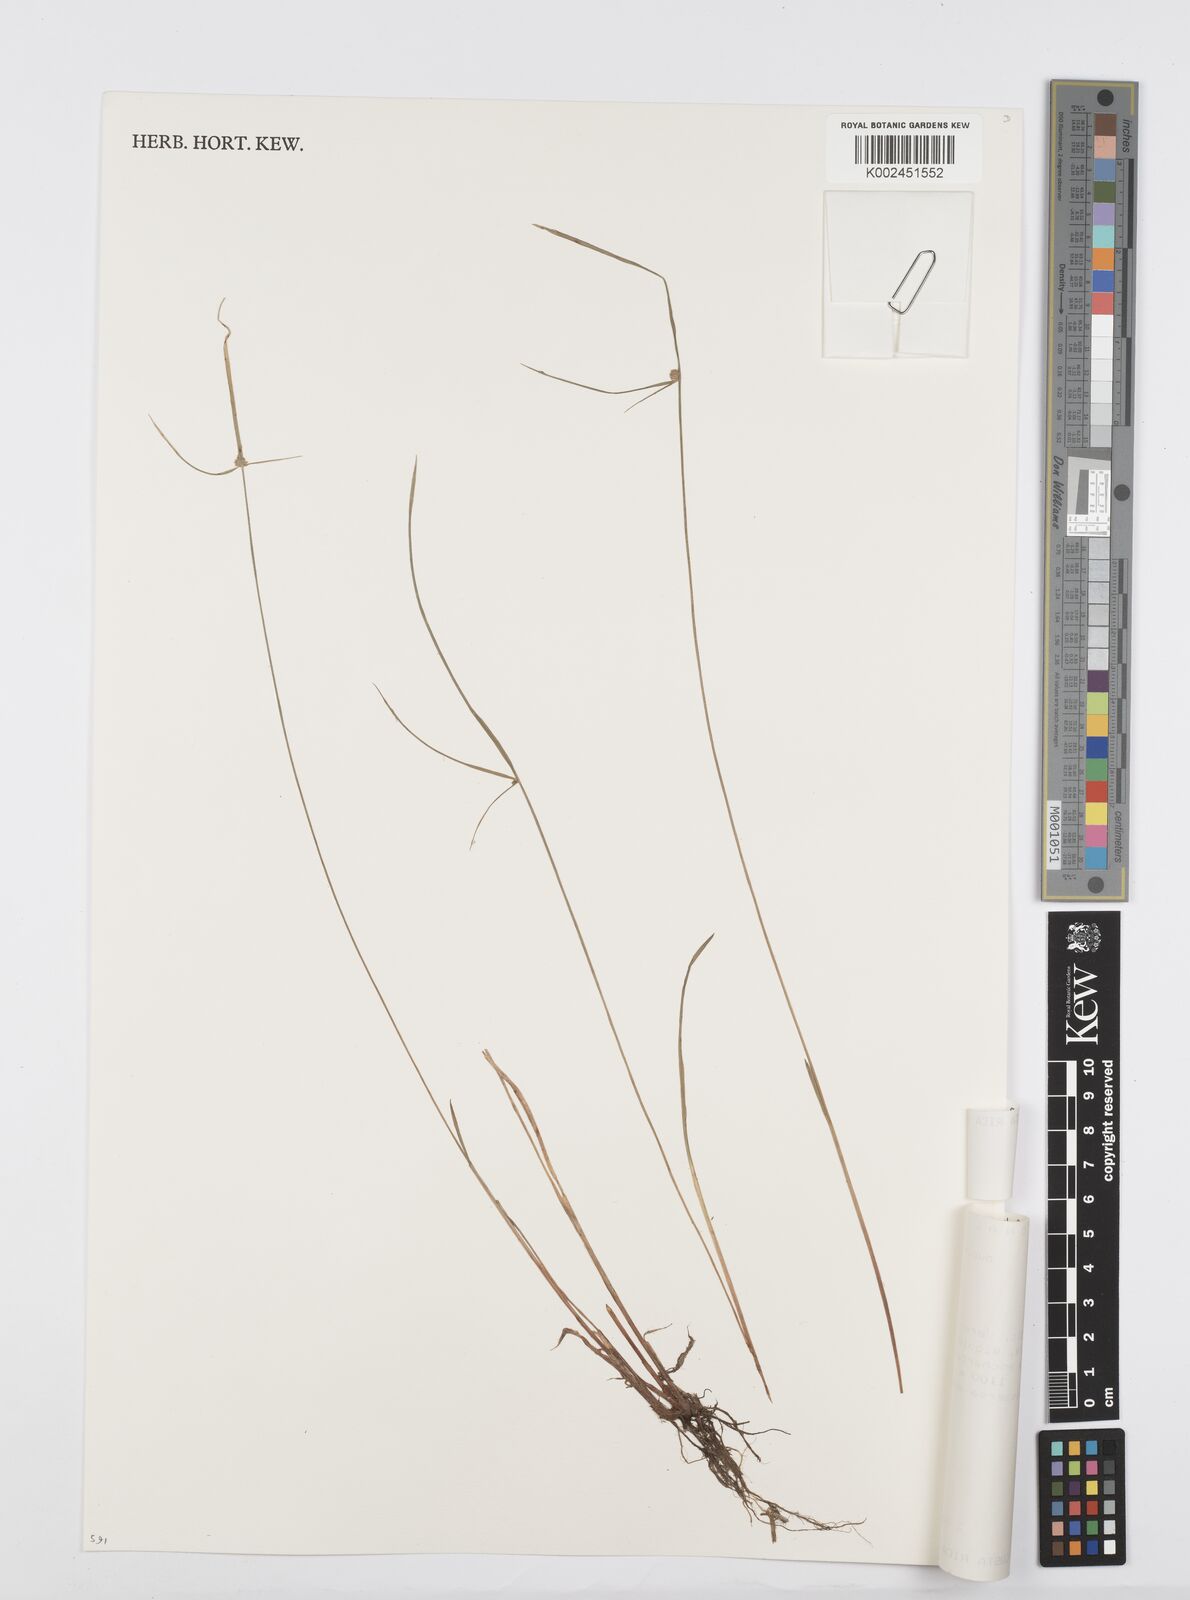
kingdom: Plantae
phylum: Tracheophyta
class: Liliopsida
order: Poales
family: Cyperaceae
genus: Cyperus
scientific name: Cyperus brevifolius
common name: Globe kyllinga
